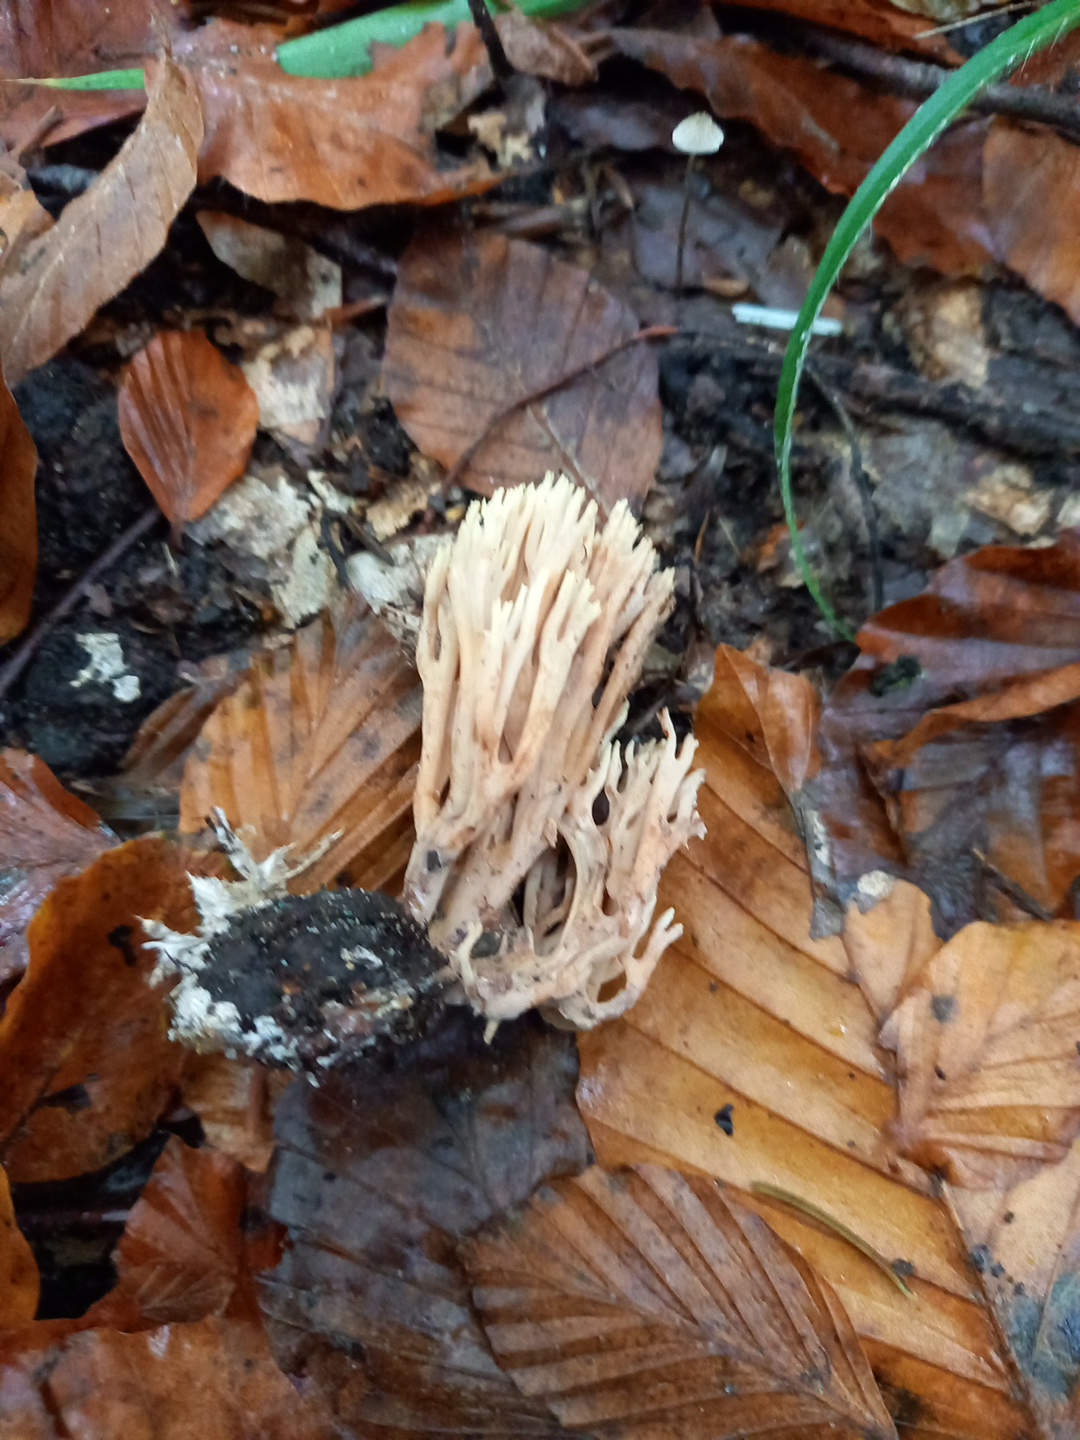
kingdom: Fungi
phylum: Basidiomycota
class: Agaricomycetes
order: Gomphales
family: Gomphaceae
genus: Ramaria
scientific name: Ramaria stricta
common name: rank koralsvamp
